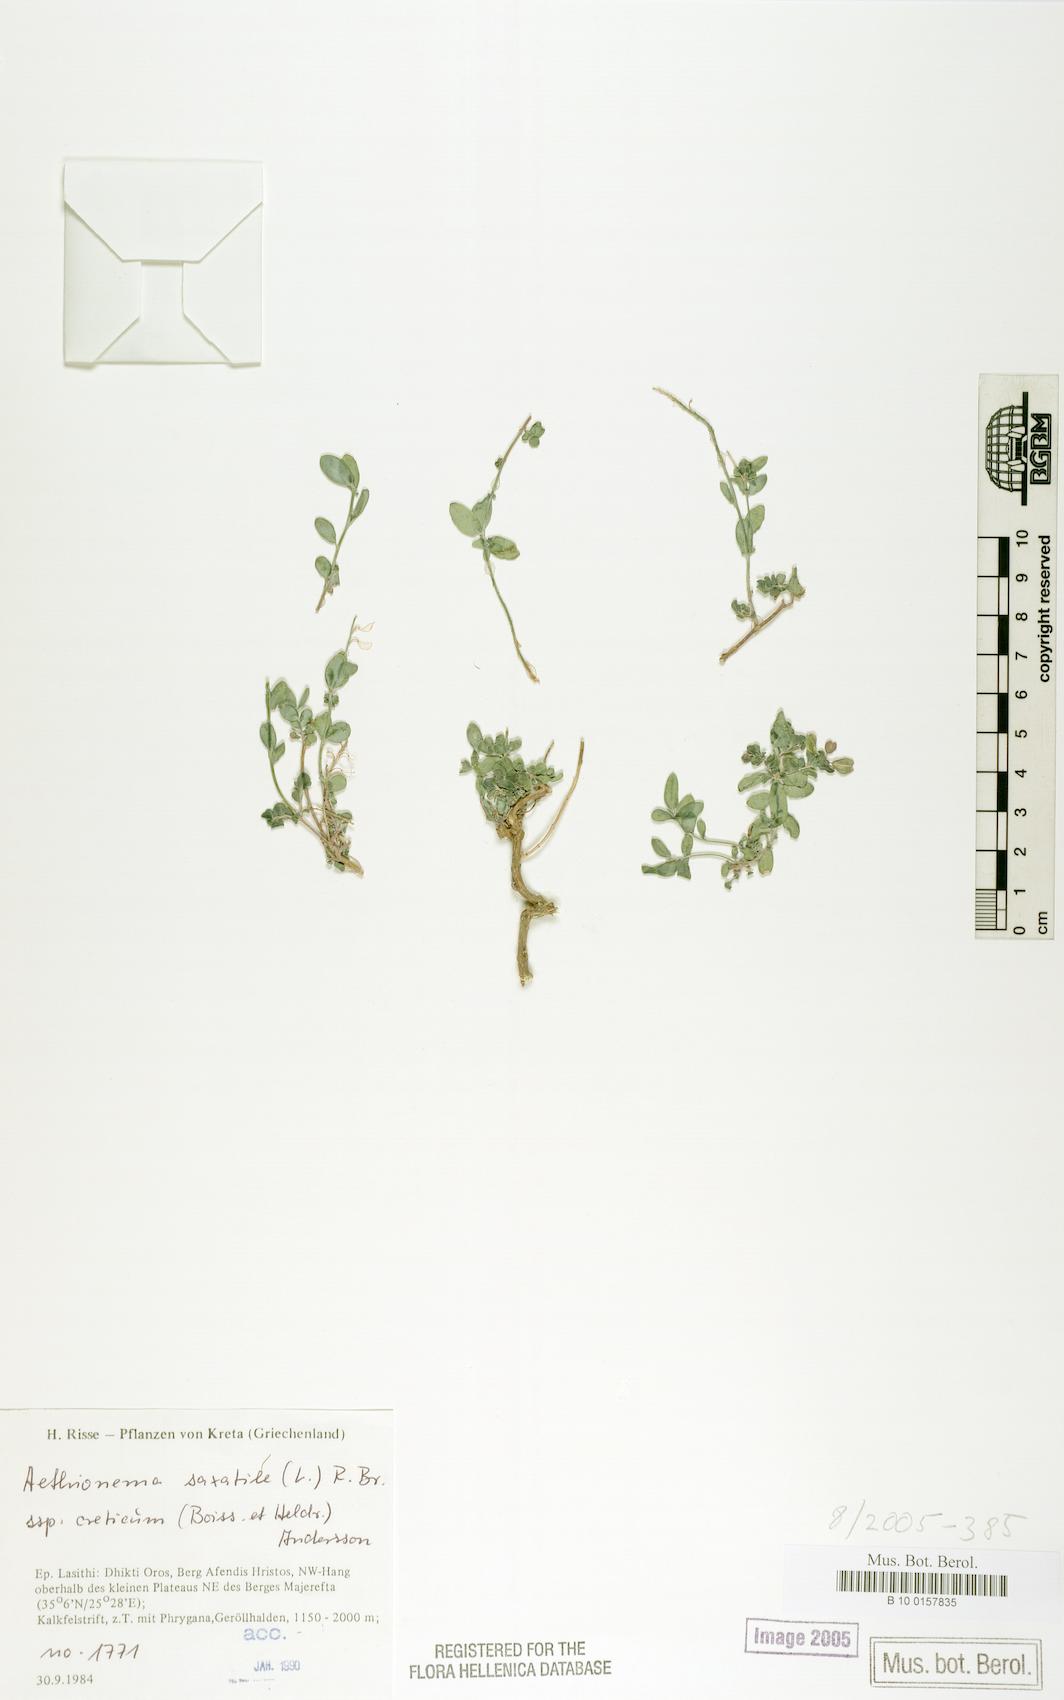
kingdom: Plantae
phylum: Tracheophyta
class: Magnoliopsida
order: Brassicales
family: Brassicaceae
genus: Aethionema
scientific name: Aethionema saxatile
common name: Burnt candytuft
